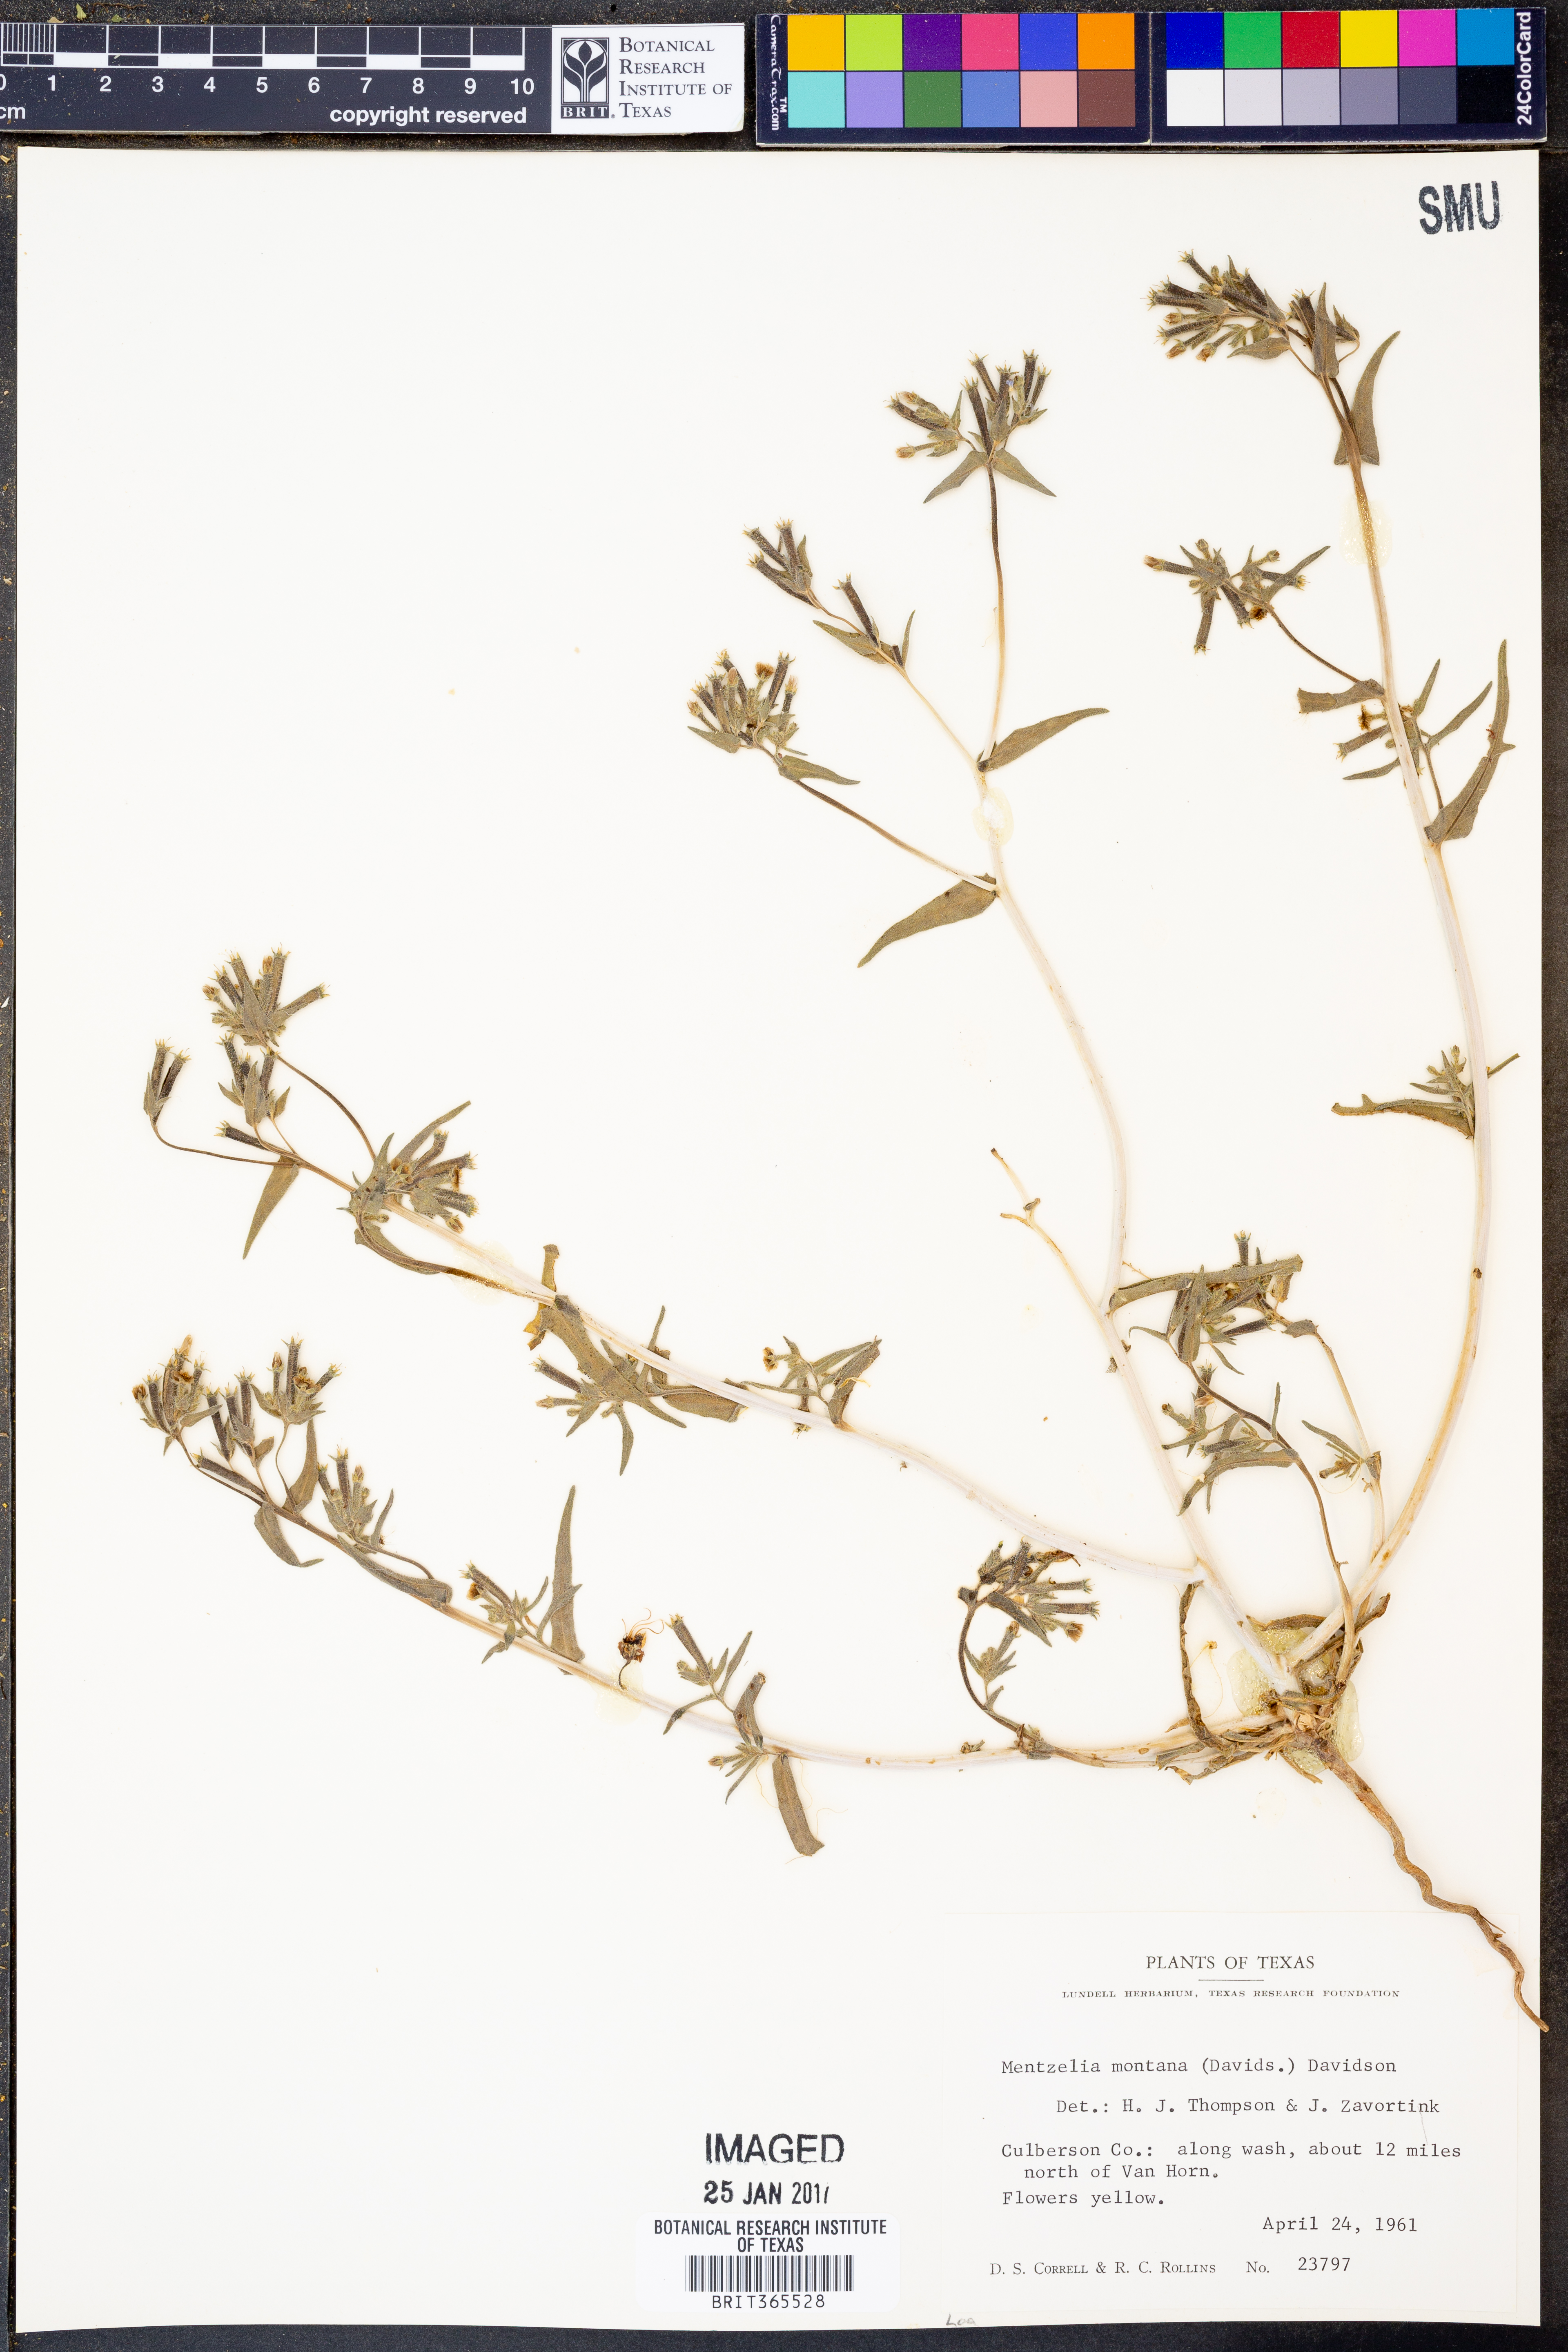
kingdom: Plantae
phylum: Tracheophyta
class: Magnoliopsida
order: Cornales
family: Loasaceae
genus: Mentzelia
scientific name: Mentzelia montana
